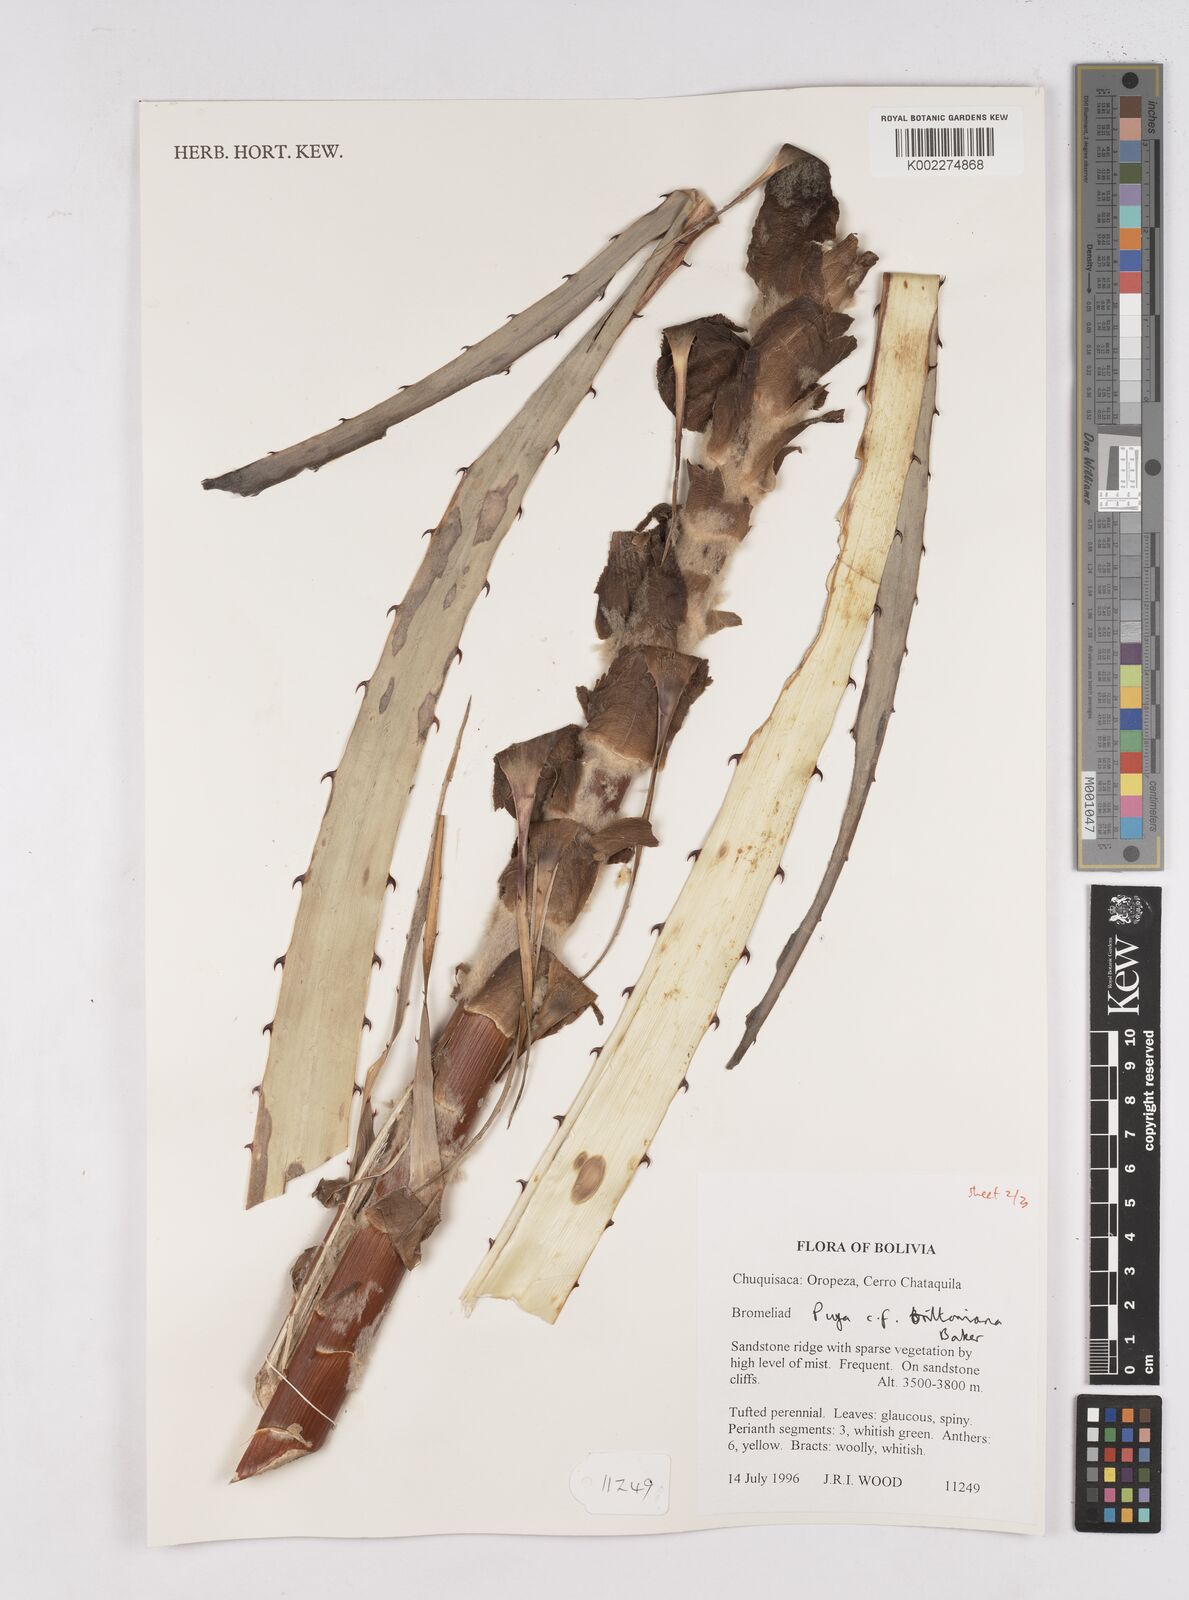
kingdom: Plantae
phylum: Tracheophyta
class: Liliopsida
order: Poales
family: Bromeliaceae
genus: Puya
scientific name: Puya brittoniana
